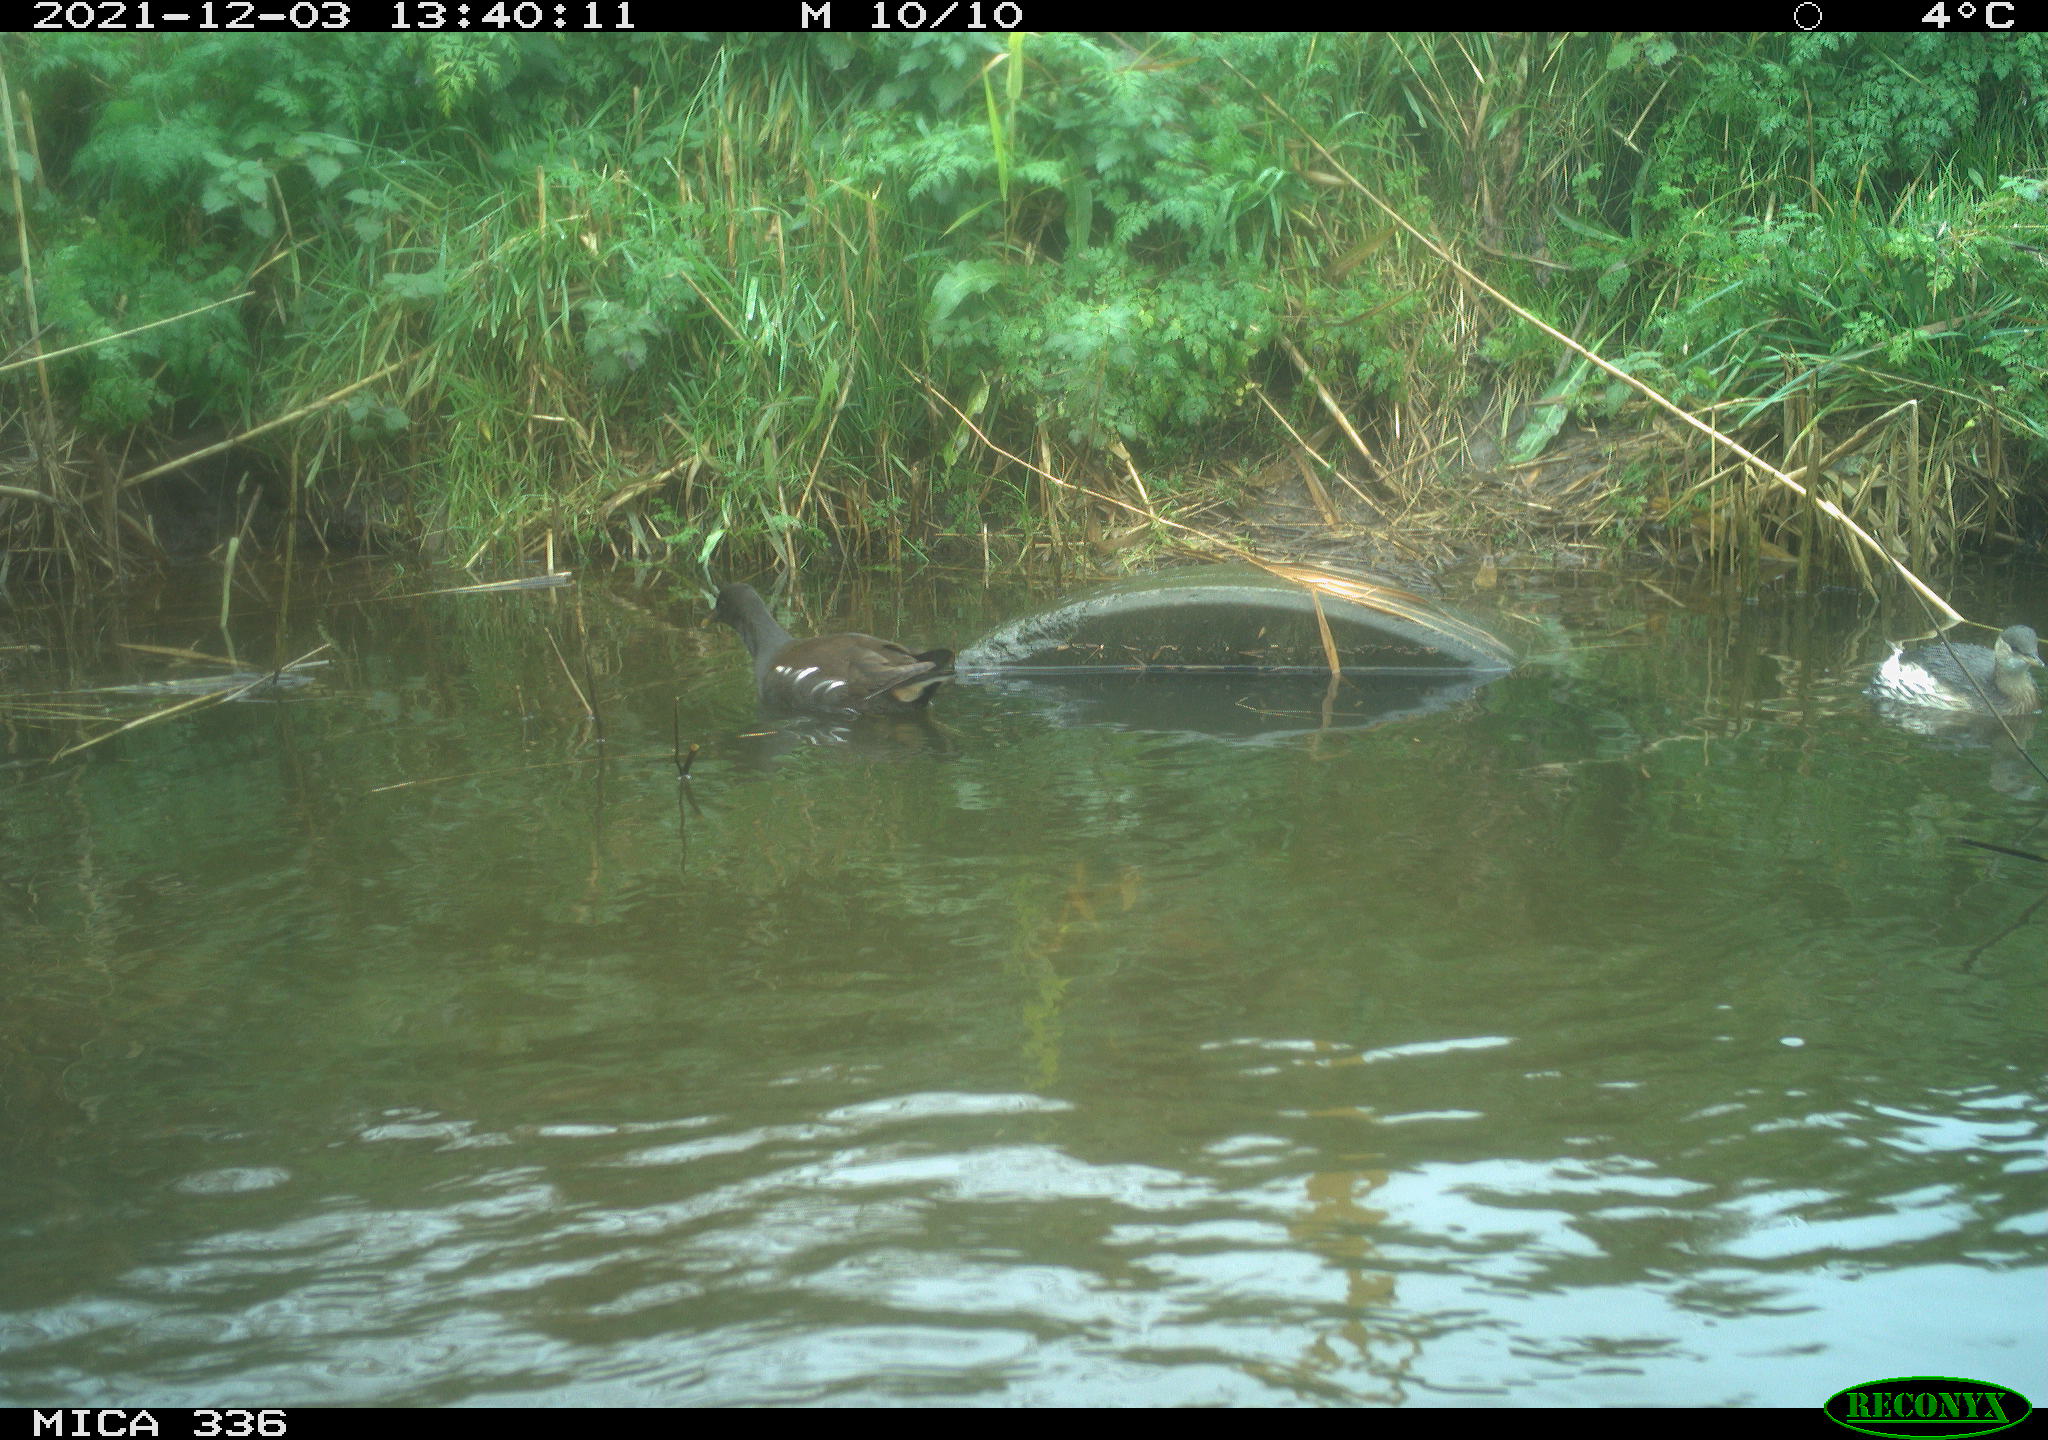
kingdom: Animalia
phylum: Chordata
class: Aves
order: Gruiformes
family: Rallidae
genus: Gallinula
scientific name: Gallinula chloropus
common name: Common moorhen
